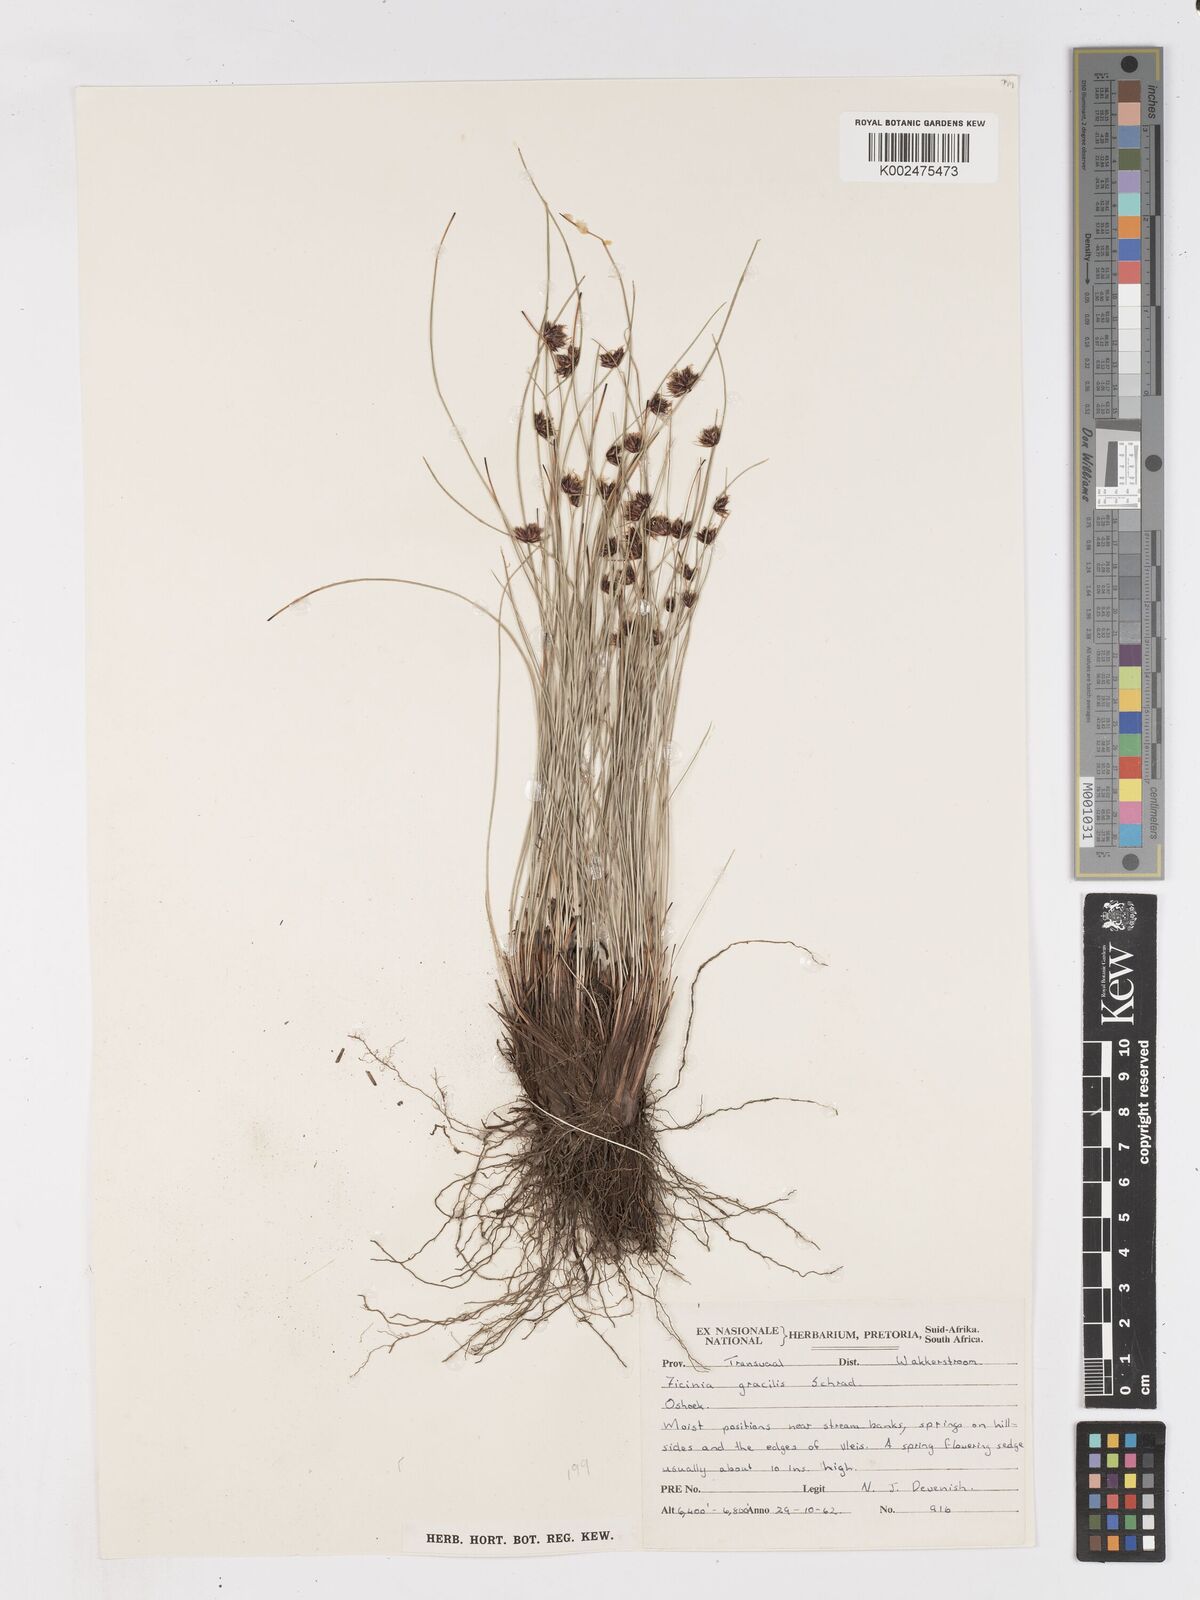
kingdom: Plantae
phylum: Tracheophyta
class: Liliopsida
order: Poales
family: Cyperaceae
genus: Ficinia
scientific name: Ficinia cinnamomea
